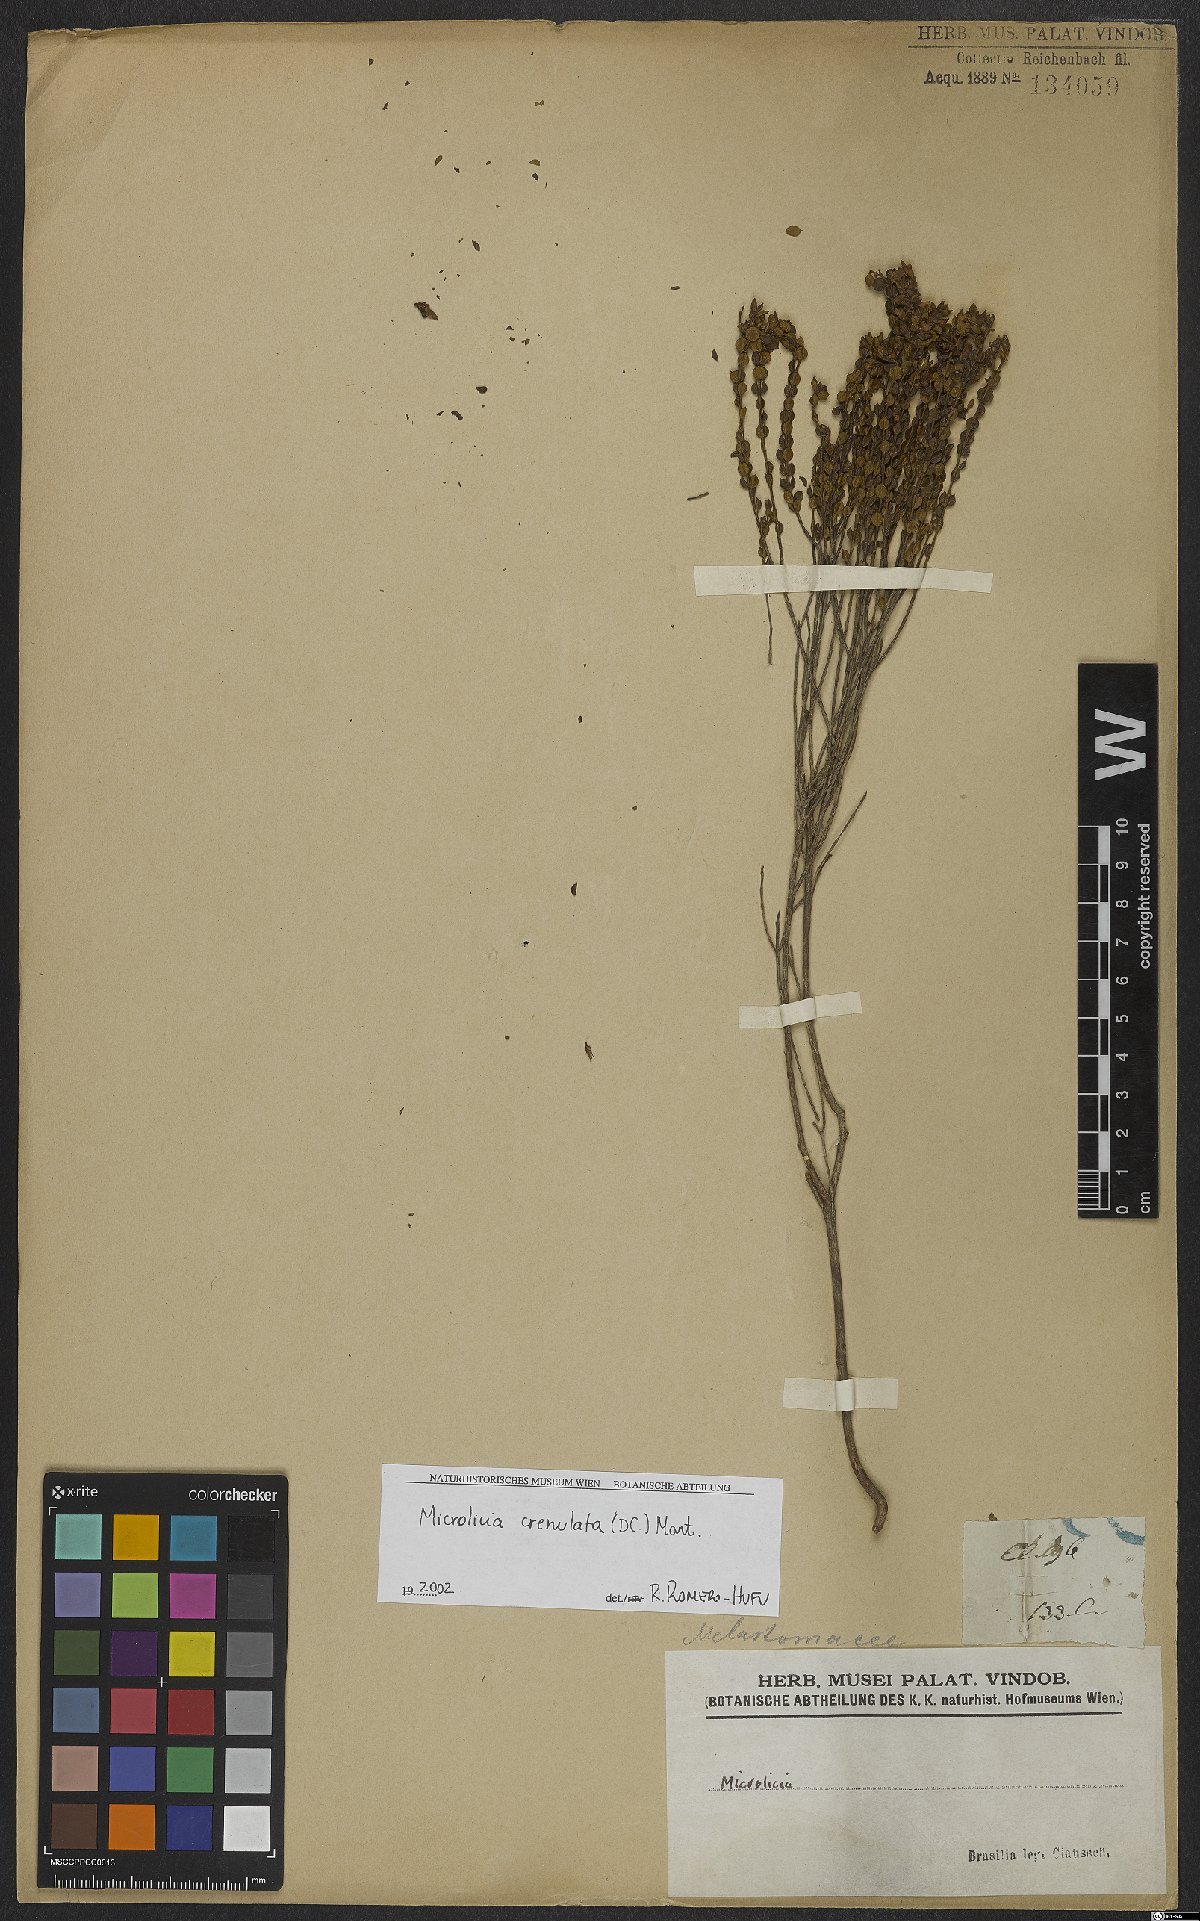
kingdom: Plantae
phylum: Tracheophyta
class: Magnoliopsida
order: Myrtales
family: Melastomataceae
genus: Microlicia
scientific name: Microlicia crenulata
